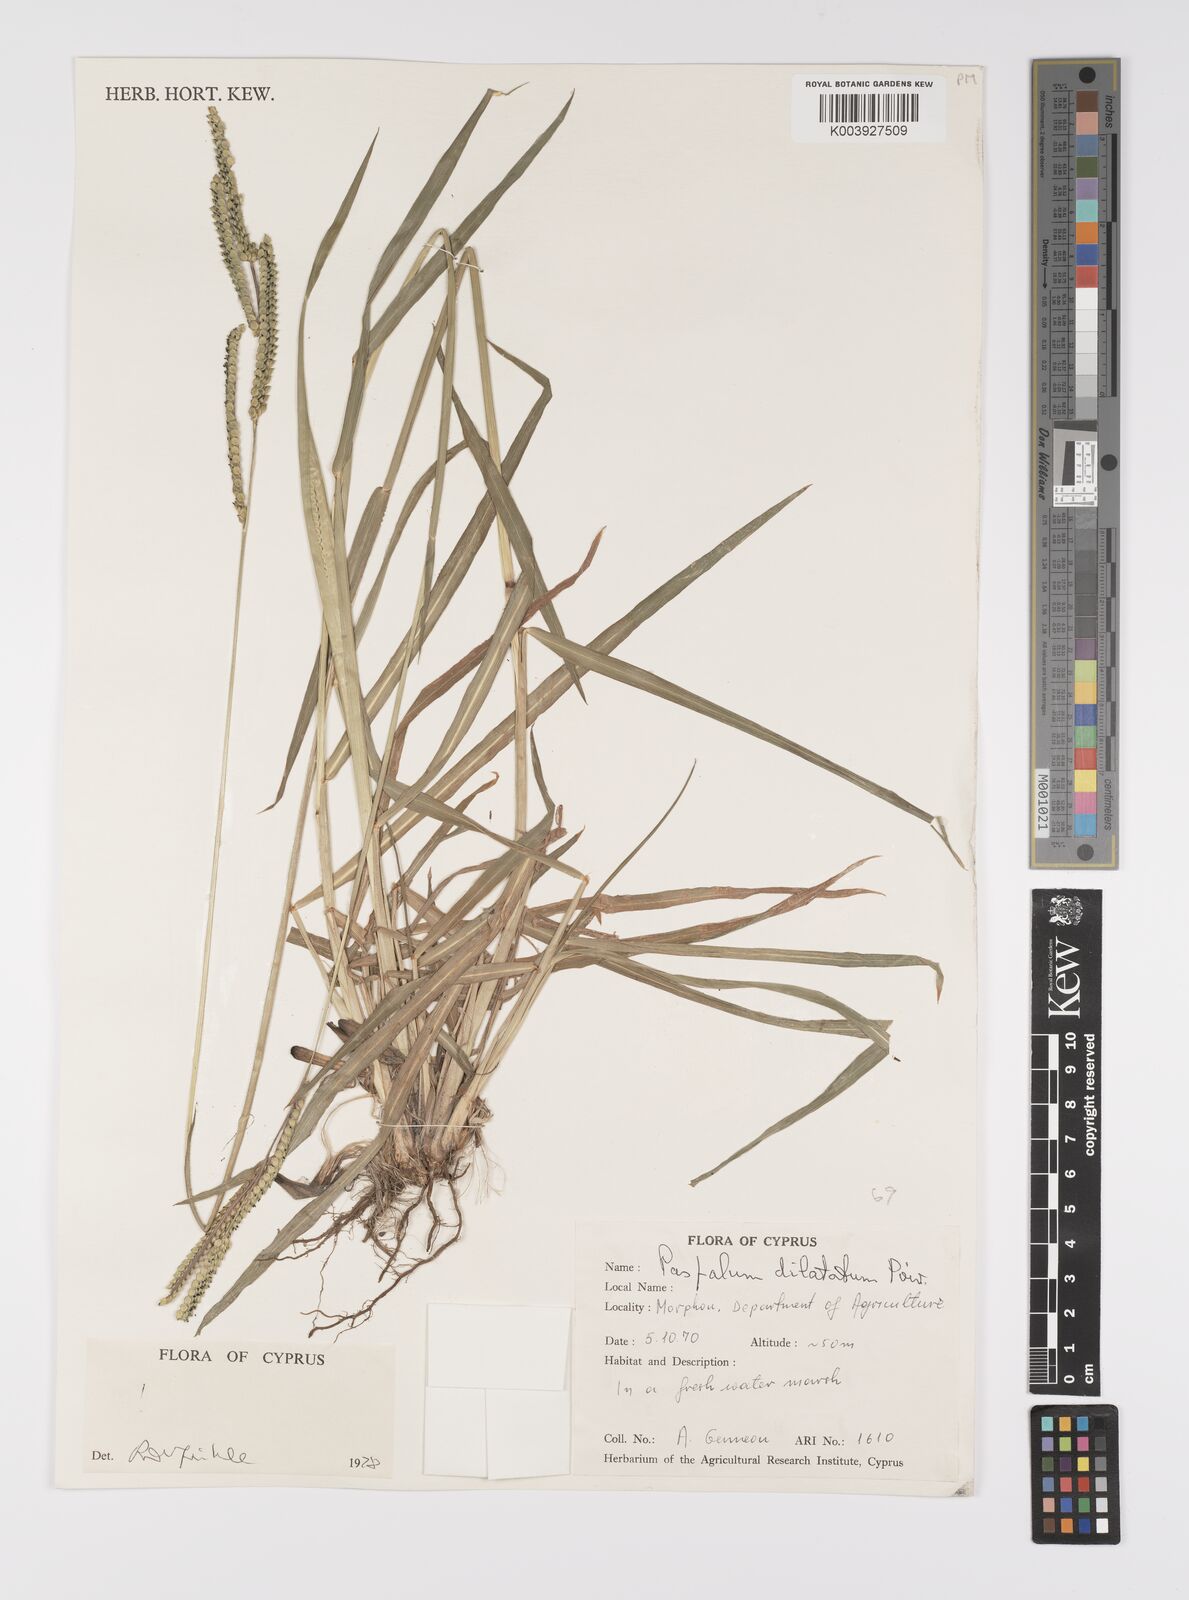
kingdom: Plantae
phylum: Tracheophyta
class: Liliopsida
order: Poales
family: Poaceae
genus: Paspalum
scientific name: Paspalum distichum
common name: Knotgrass
